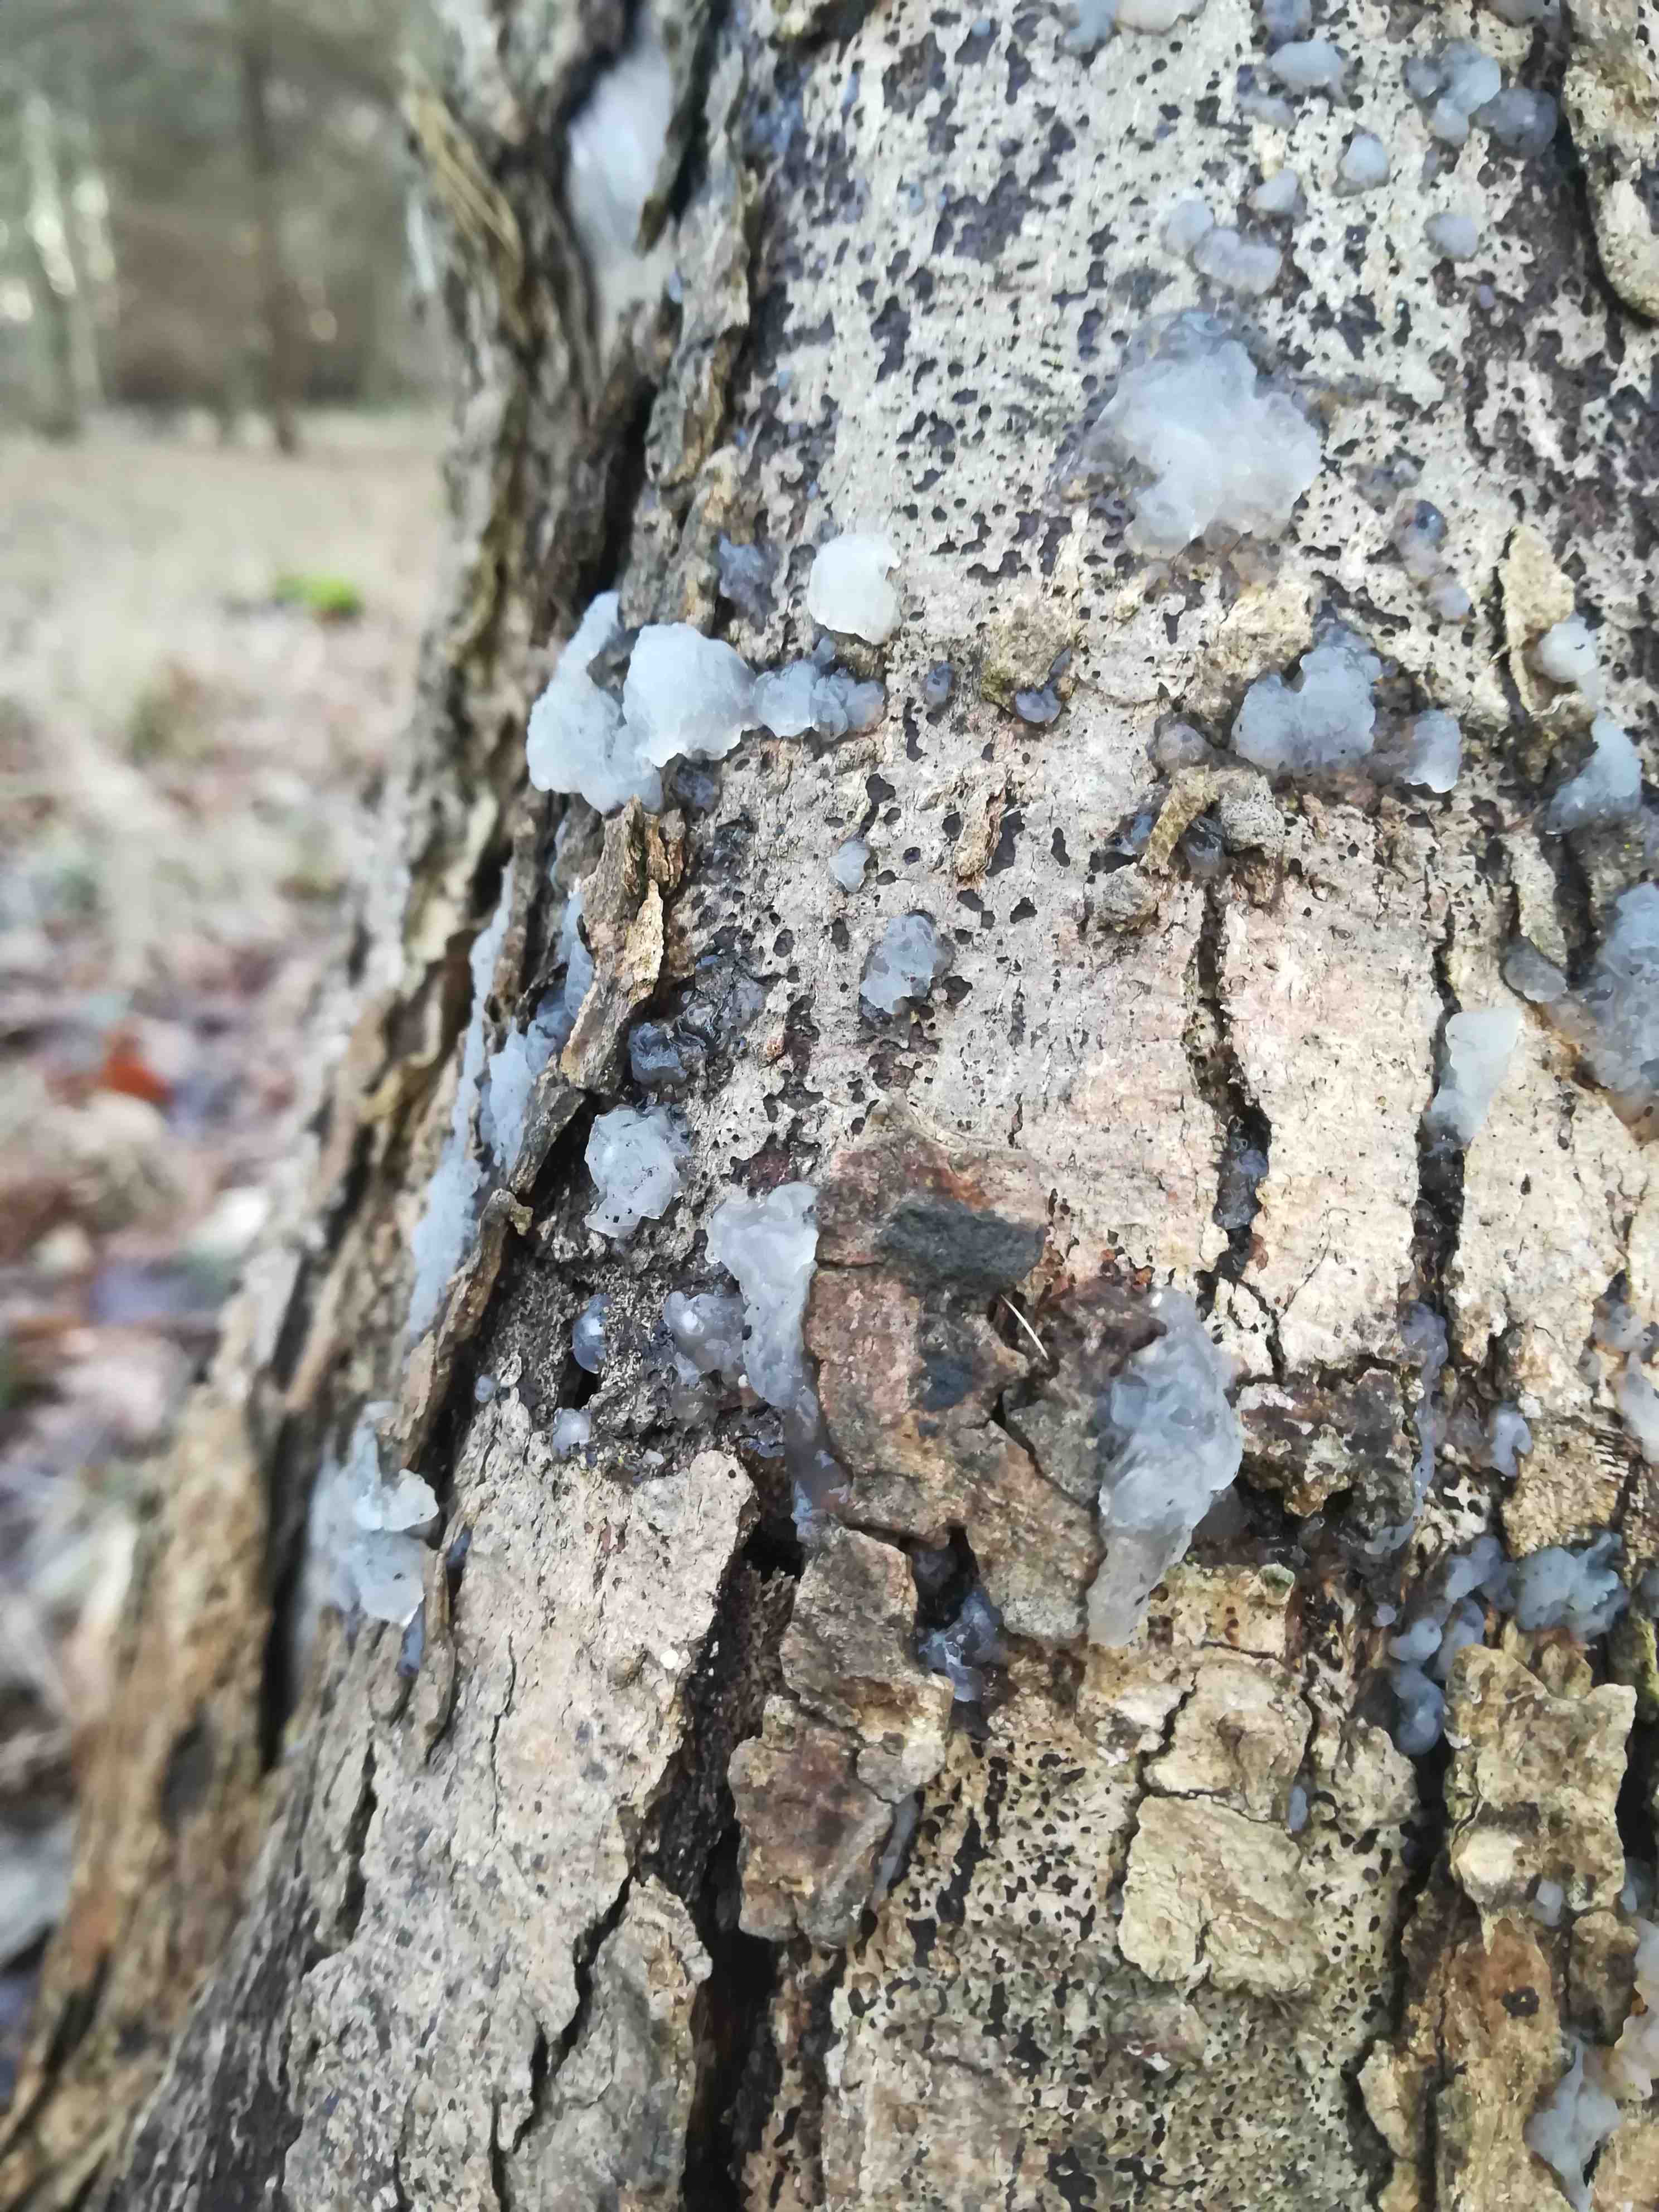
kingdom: Fungi
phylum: Basidiomycota
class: Agaricomycetes
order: Auriculariales
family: Hyaloriaceae
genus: Myxarium
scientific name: Myxarium nucleatum
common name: klar bævretop
